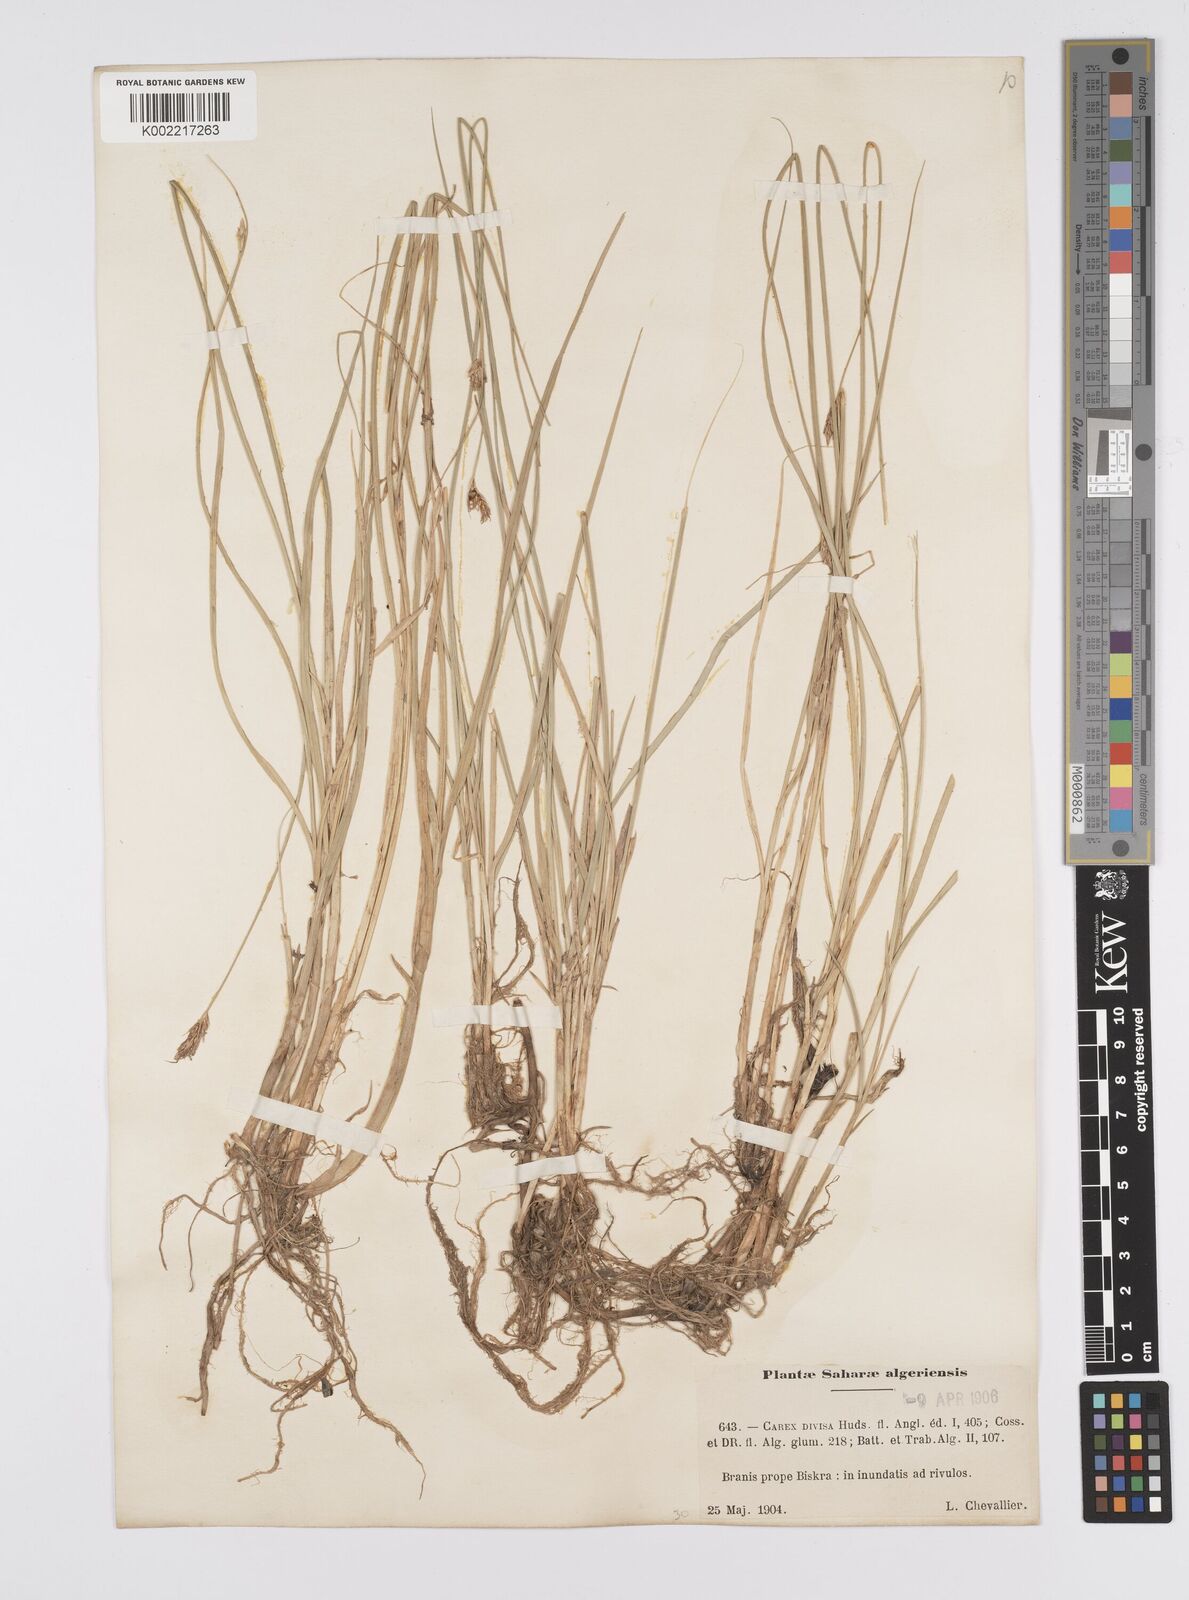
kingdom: Plantae
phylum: Tracheophyta
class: Liliopsida
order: Poales
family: Cyperaceae
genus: Carex
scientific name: Carex divisa
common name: Divided sedge
